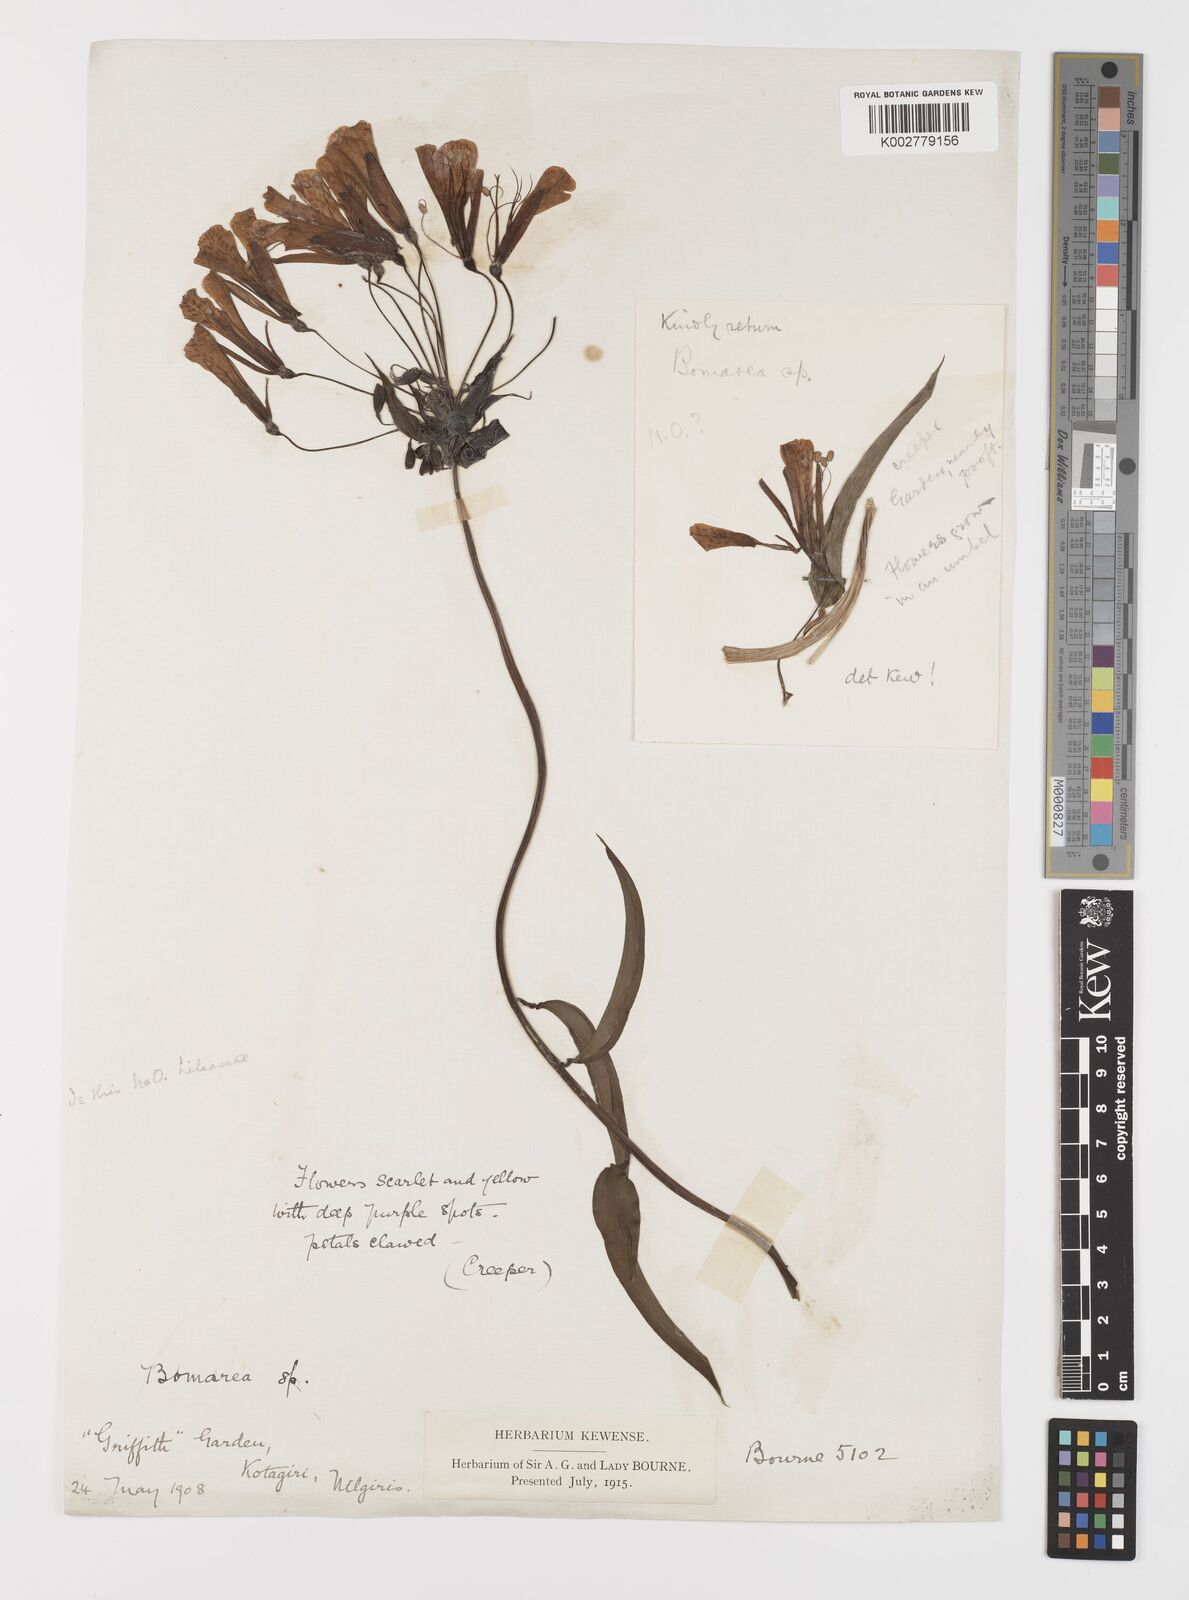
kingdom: Plantae
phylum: Tracheophyta
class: Liliopsida
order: Liliales
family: Alstroemeriaceae
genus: Bomarea
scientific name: Bomarea multiflora
